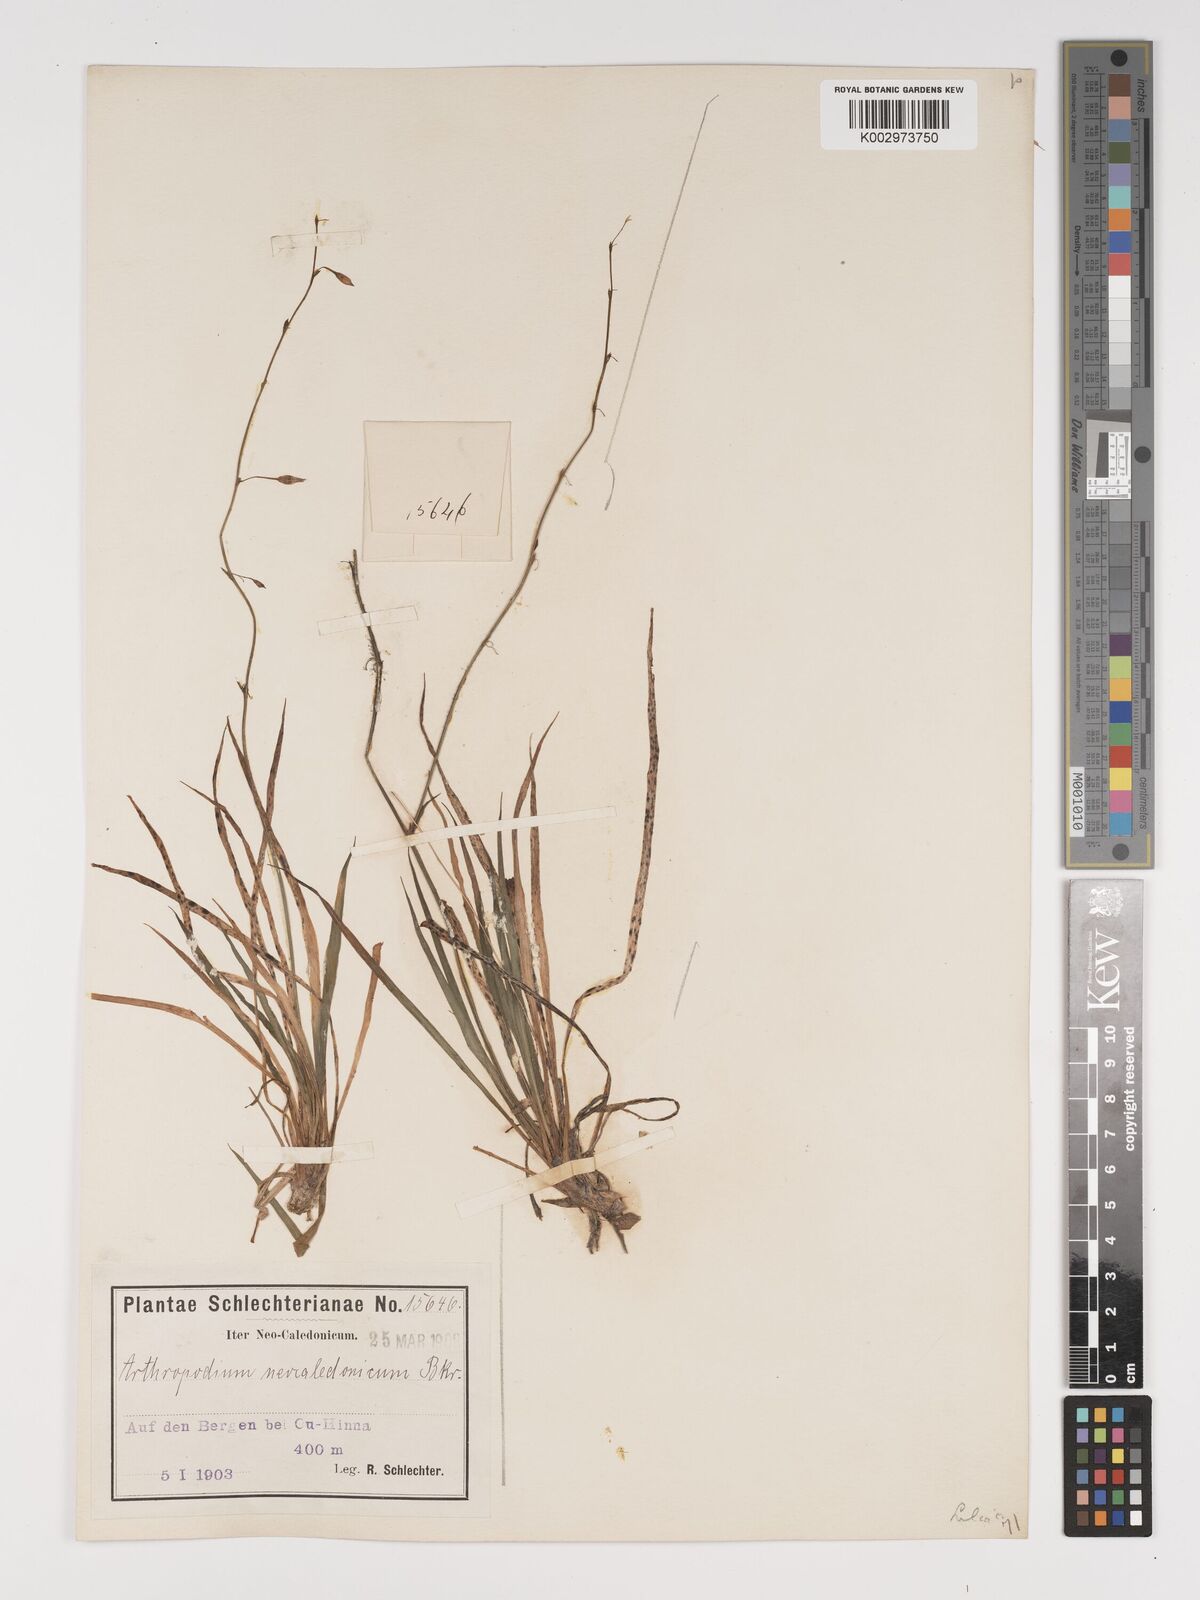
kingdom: Plantae
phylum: Tracheophyta
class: Liliopsida
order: Asparagales
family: Asparagaceae
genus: Arthropodium
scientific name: Arthropodium neocaledonicum
